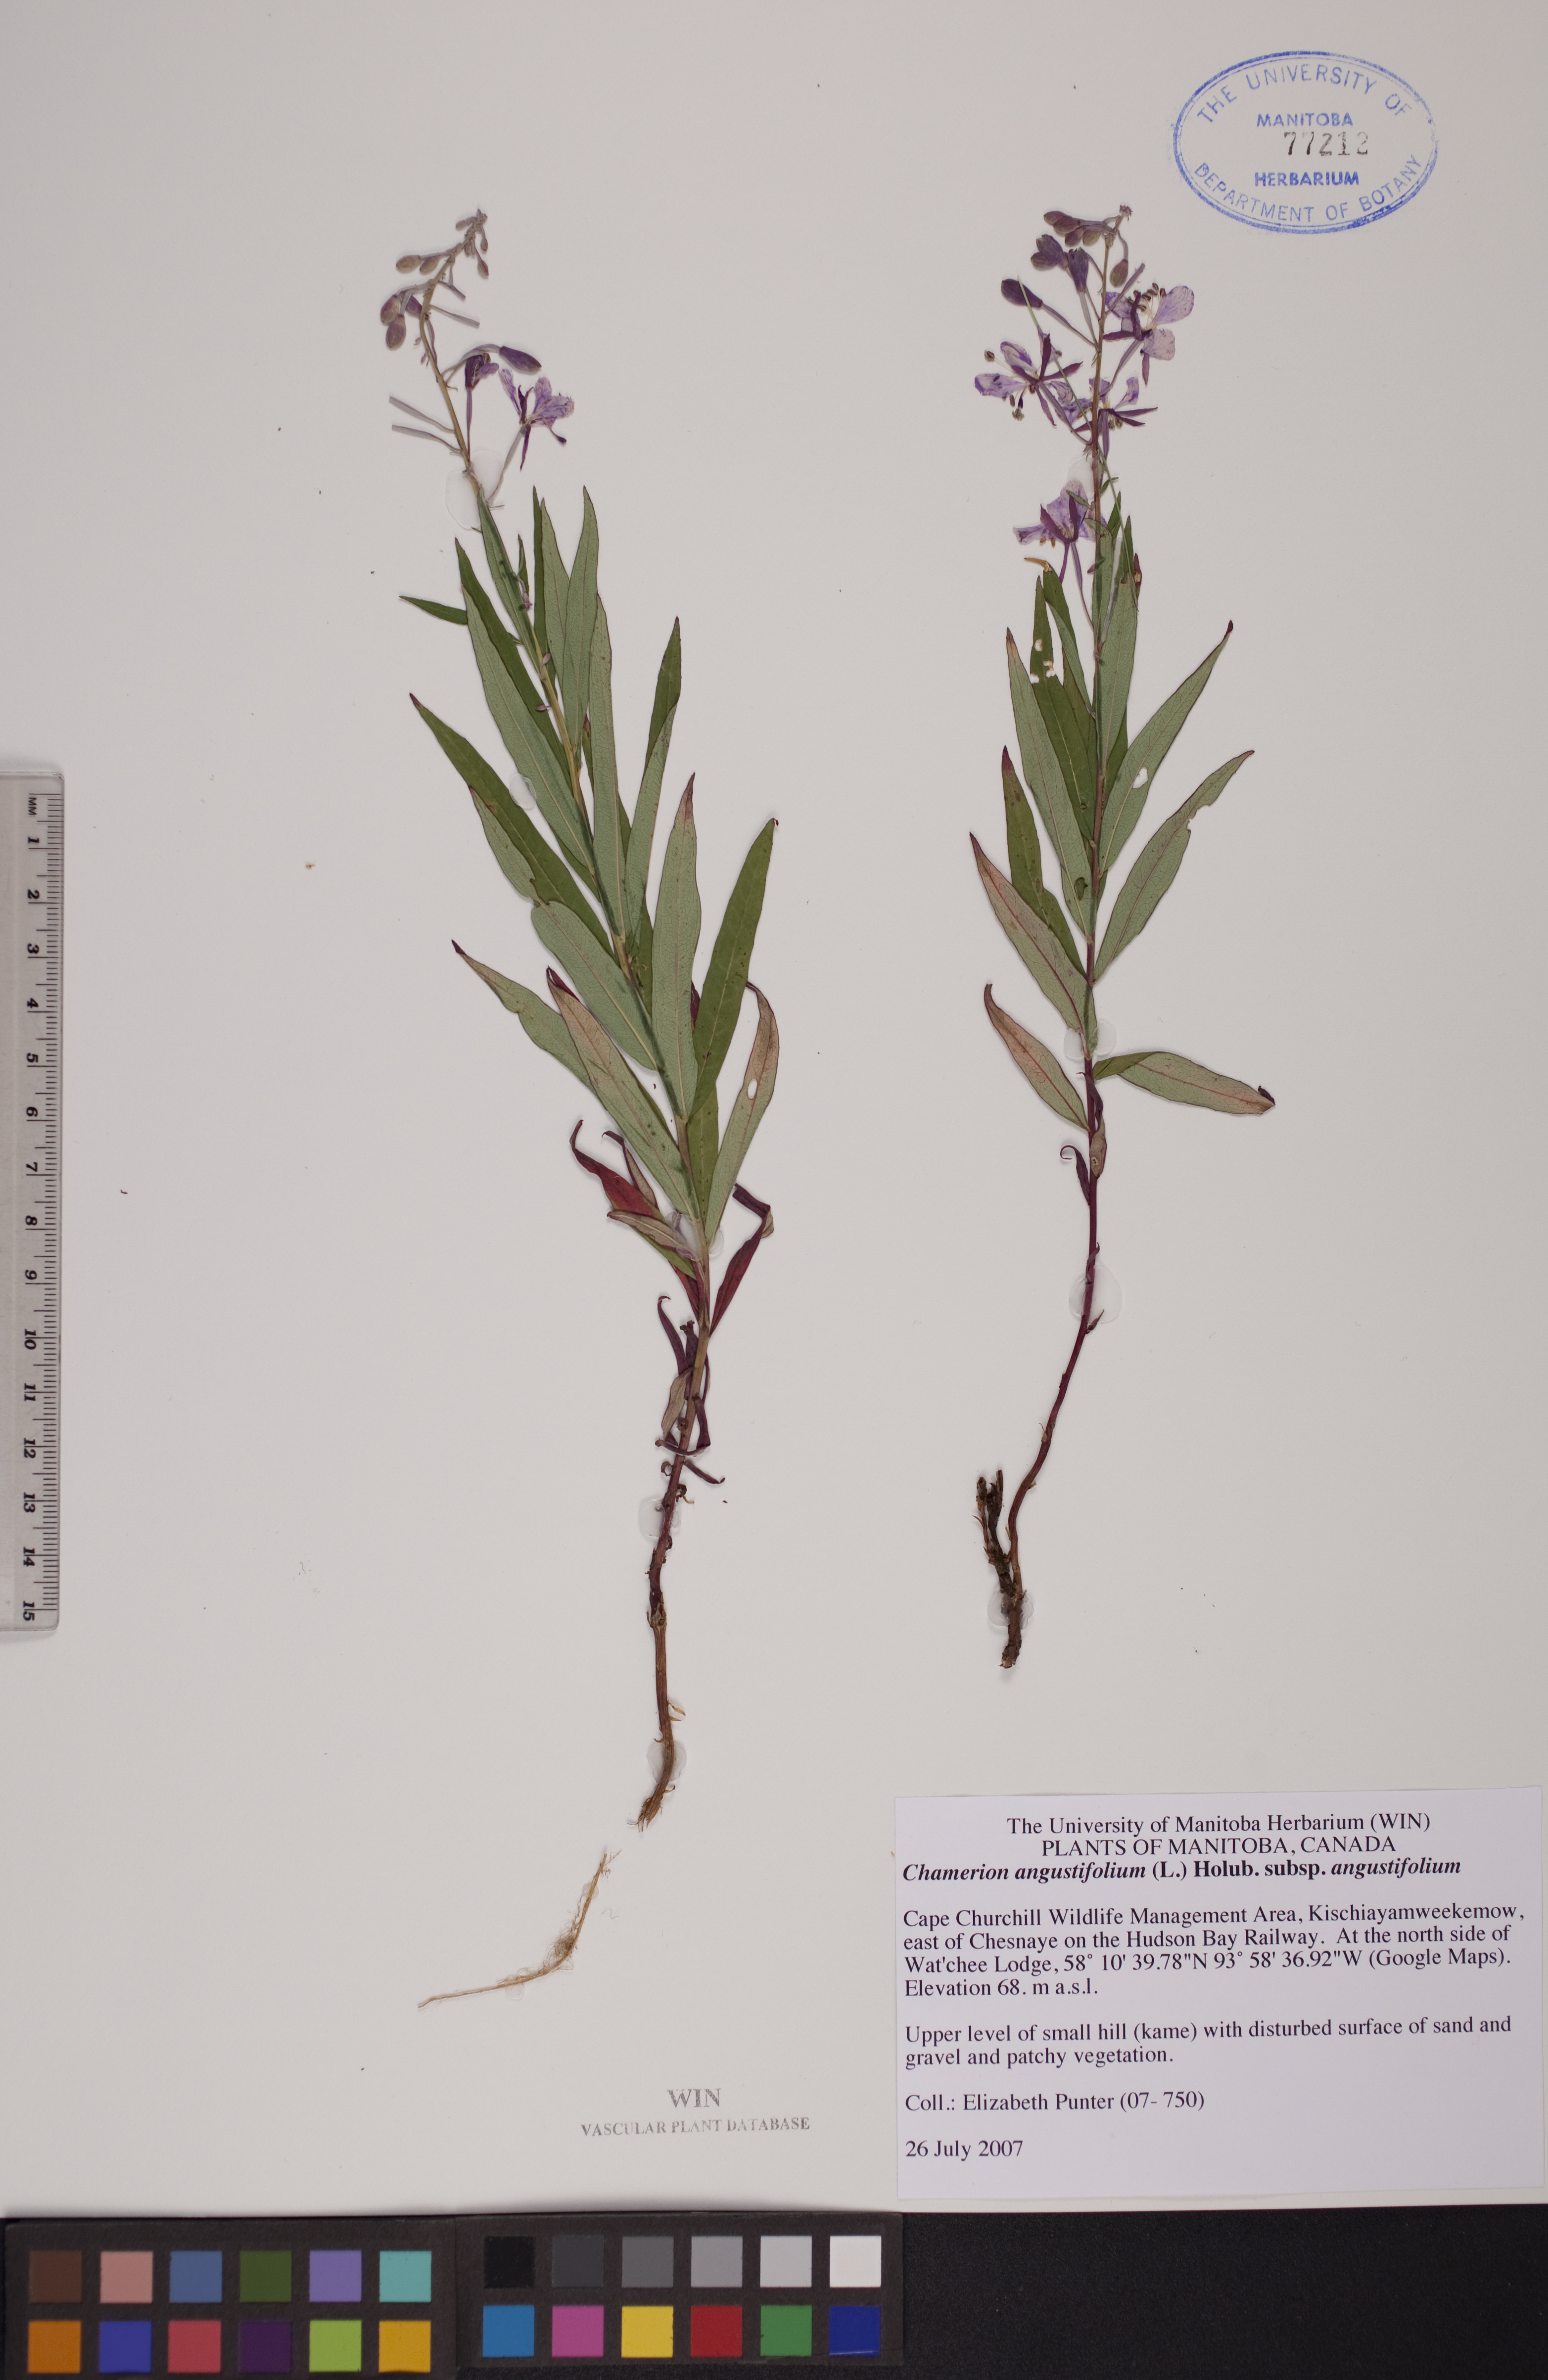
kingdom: Plantae
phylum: Tracheophyta
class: Magnoliopsida
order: Myrtales
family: Onagraceae
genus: Chamaenerion
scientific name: Chamaenerion angustifolium
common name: Fireweed
